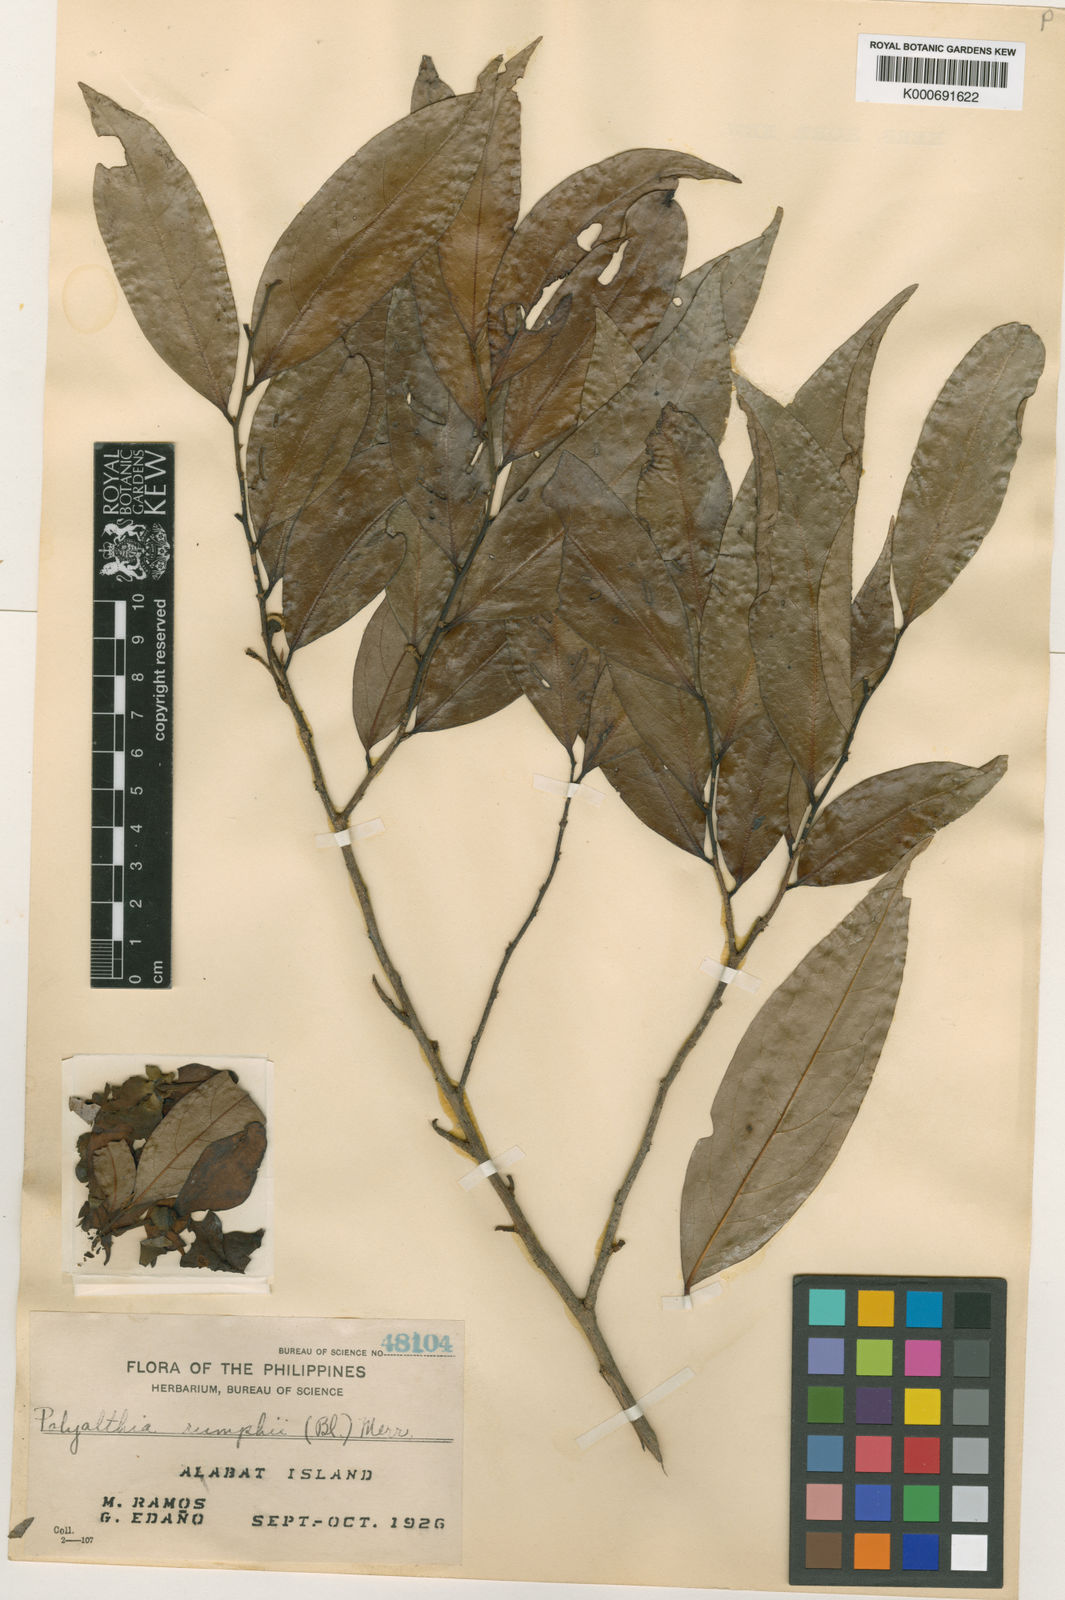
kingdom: Plantae
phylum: Tracheophyta
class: Magnoliopsida
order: Magnoliales
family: Annonaceae
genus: Hubera
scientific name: Hubera rumphii
